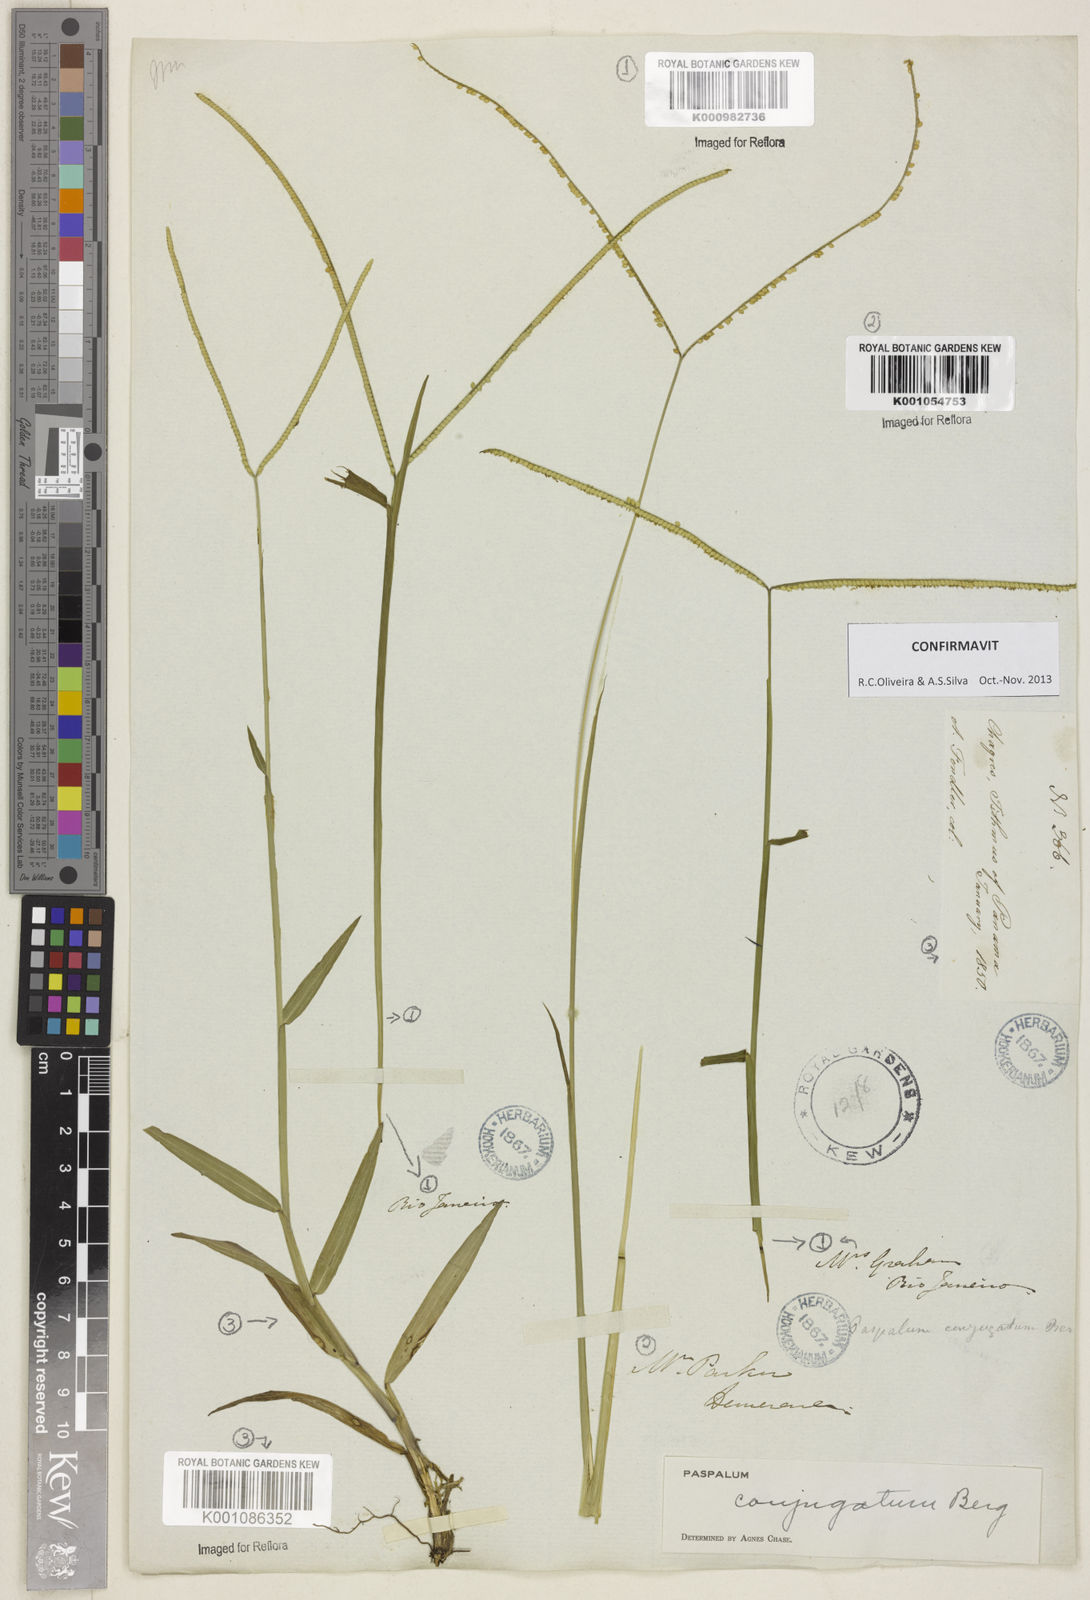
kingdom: Plantae
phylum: Tracheophyta
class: Liliopsida
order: Poales
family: Poaceae
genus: Paspalum
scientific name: Paspalum conjugatum
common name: Hilograss
